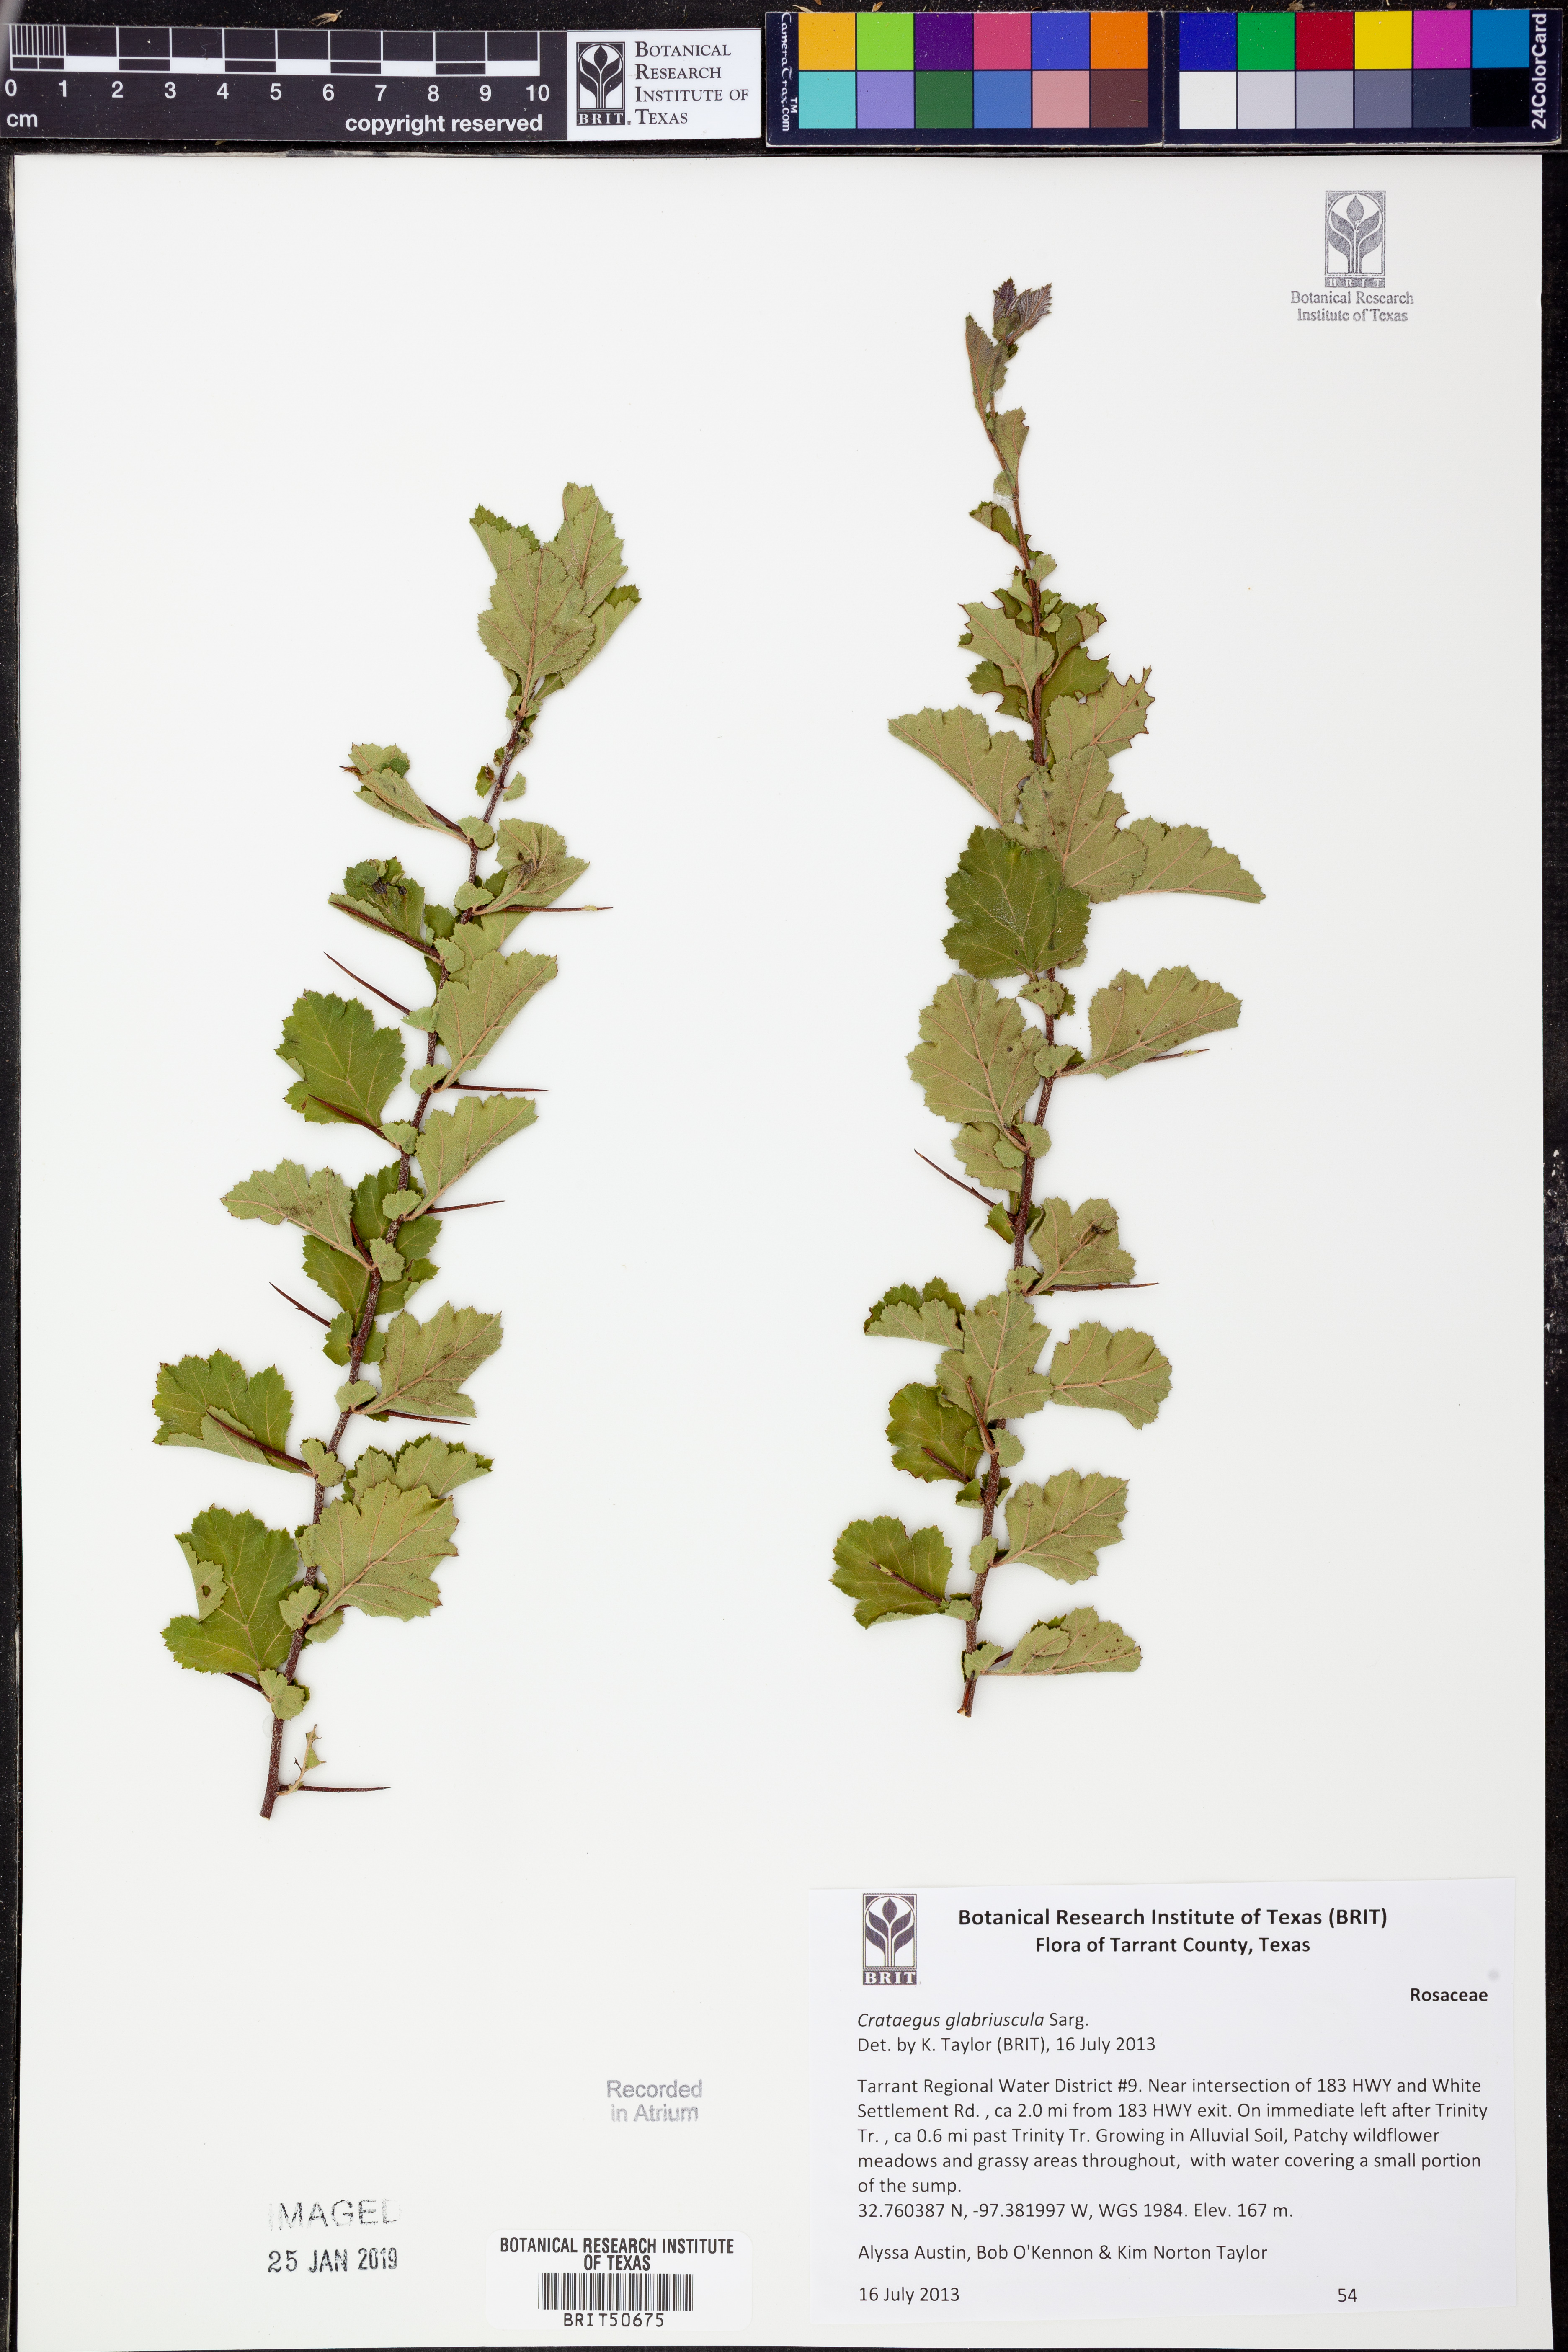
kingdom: Plantae
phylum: Tracheophyta
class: Magnoliopsida
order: Rosales
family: Rosaceae
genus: Crataegus
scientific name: Crataegus viridis
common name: Southernthorn
